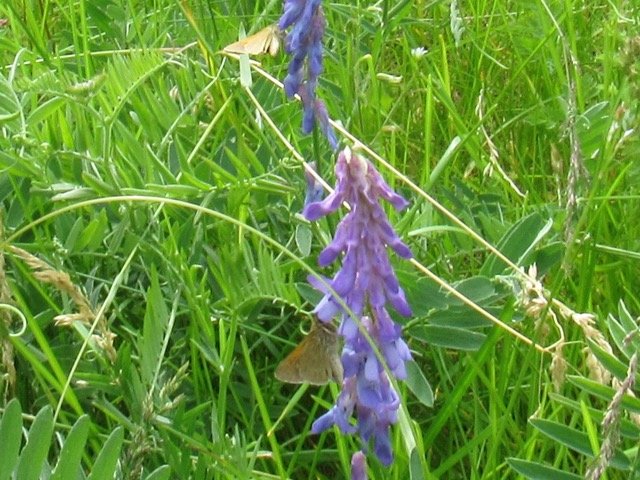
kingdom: Animalia
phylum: Arthropoda
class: Insecta
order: Lepidoptera
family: Hesperiidae
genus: Polites
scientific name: Polites themistocles
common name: Tawny-edged Skipper
